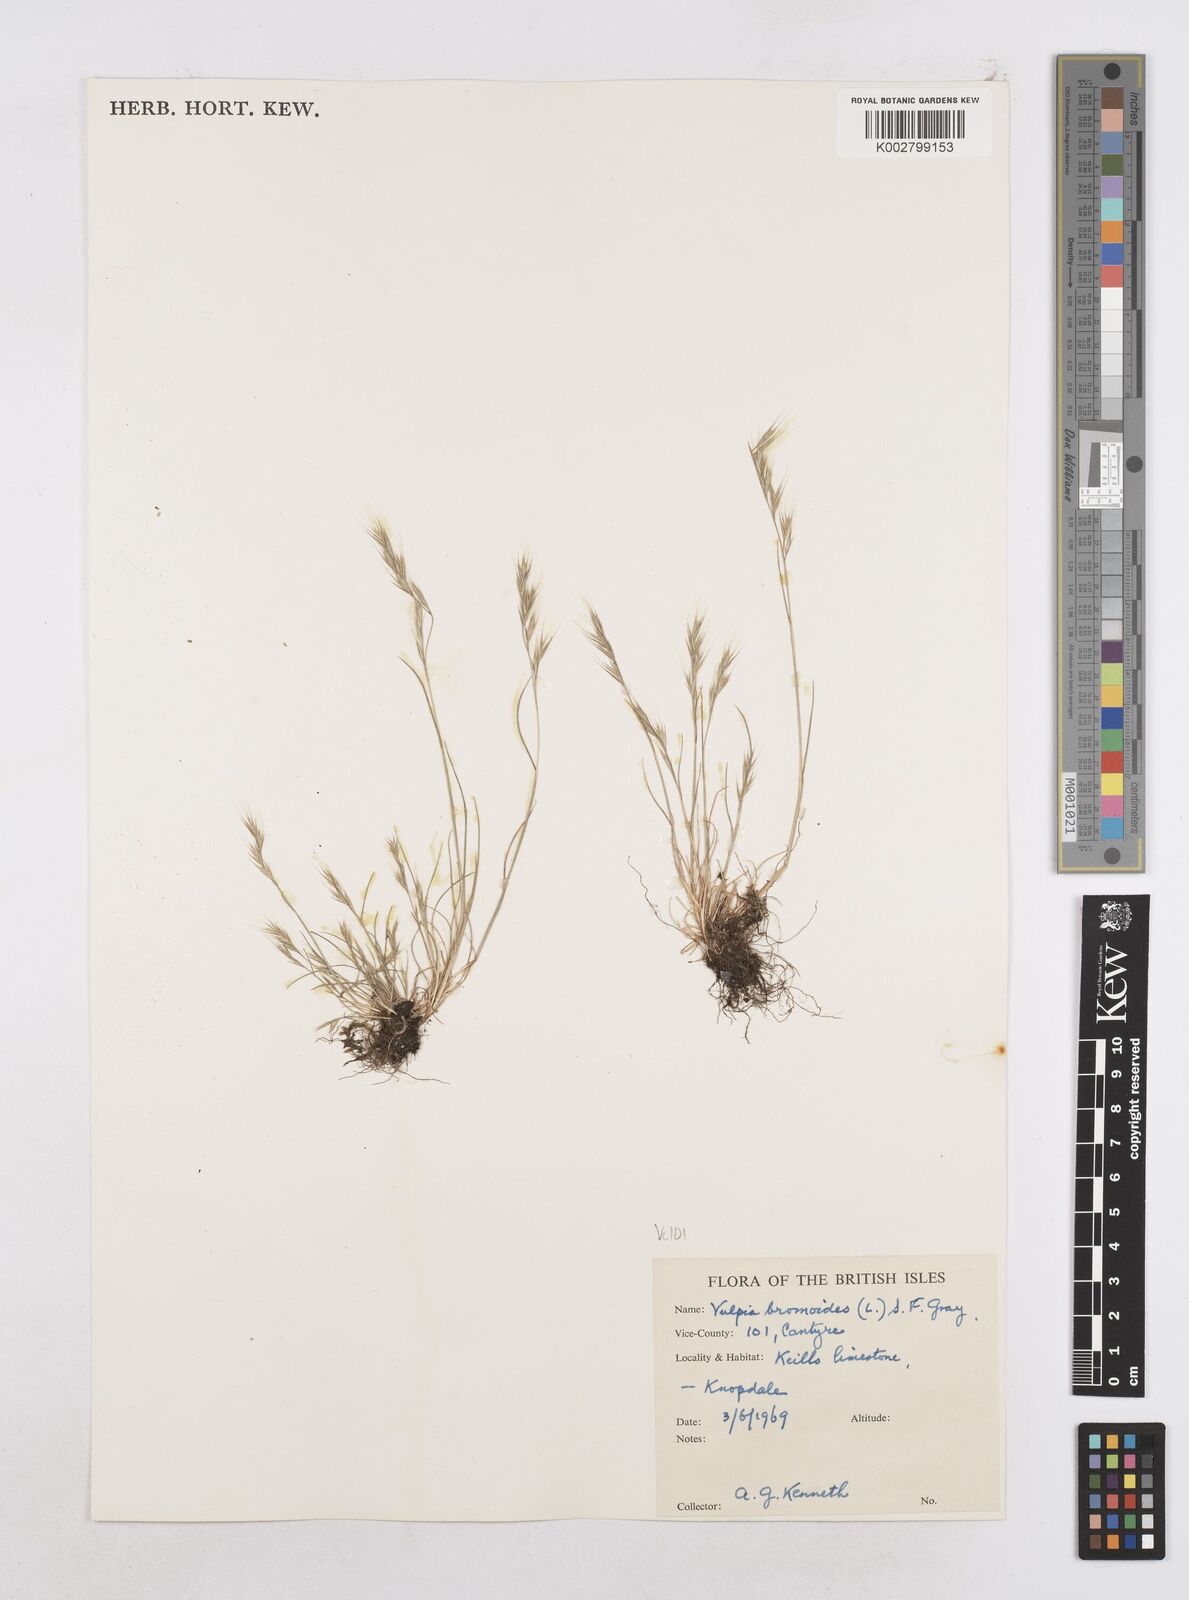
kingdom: Plantae
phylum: Tracheophyta
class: Liliopsida
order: Poales
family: Poaceae
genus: Festuca
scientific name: Festuca bromoides
